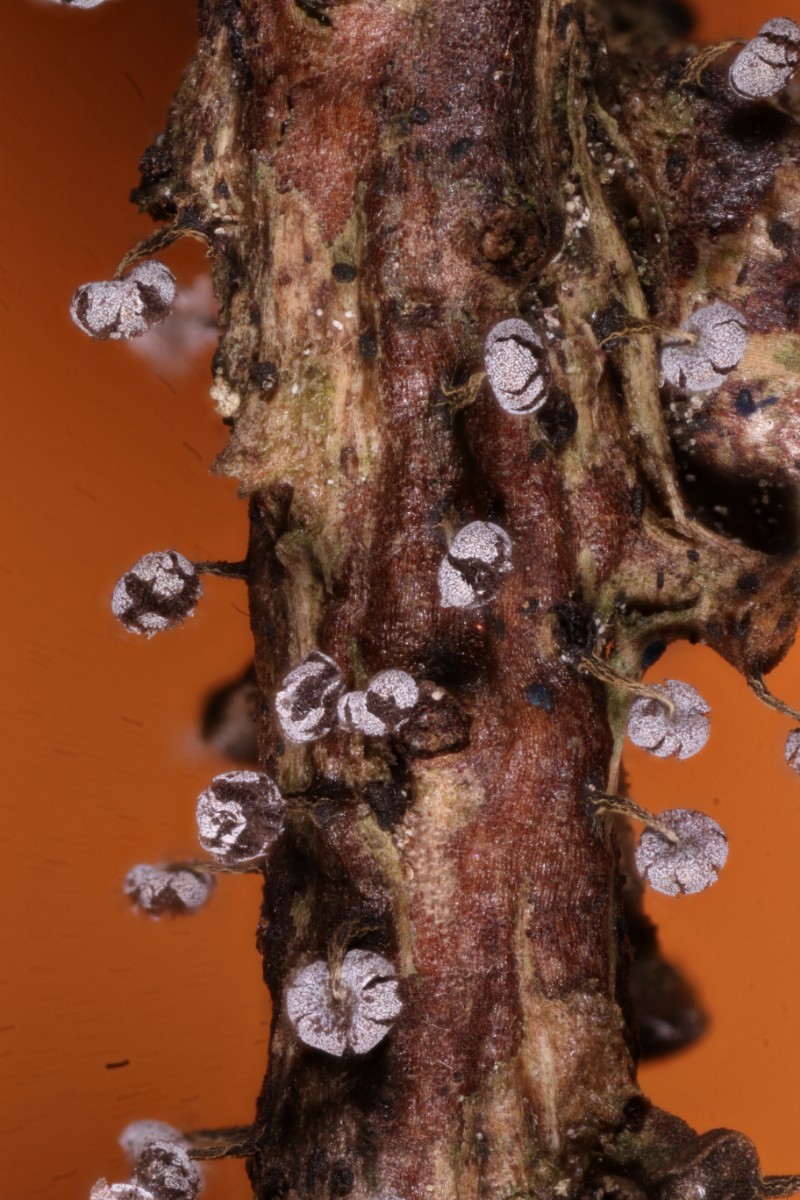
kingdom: Protozoa
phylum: Mycetozoa
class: Myxomycetes
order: Physarales
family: Physaraceae
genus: Physarum
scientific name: Physarum album
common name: nikkende støvknop
